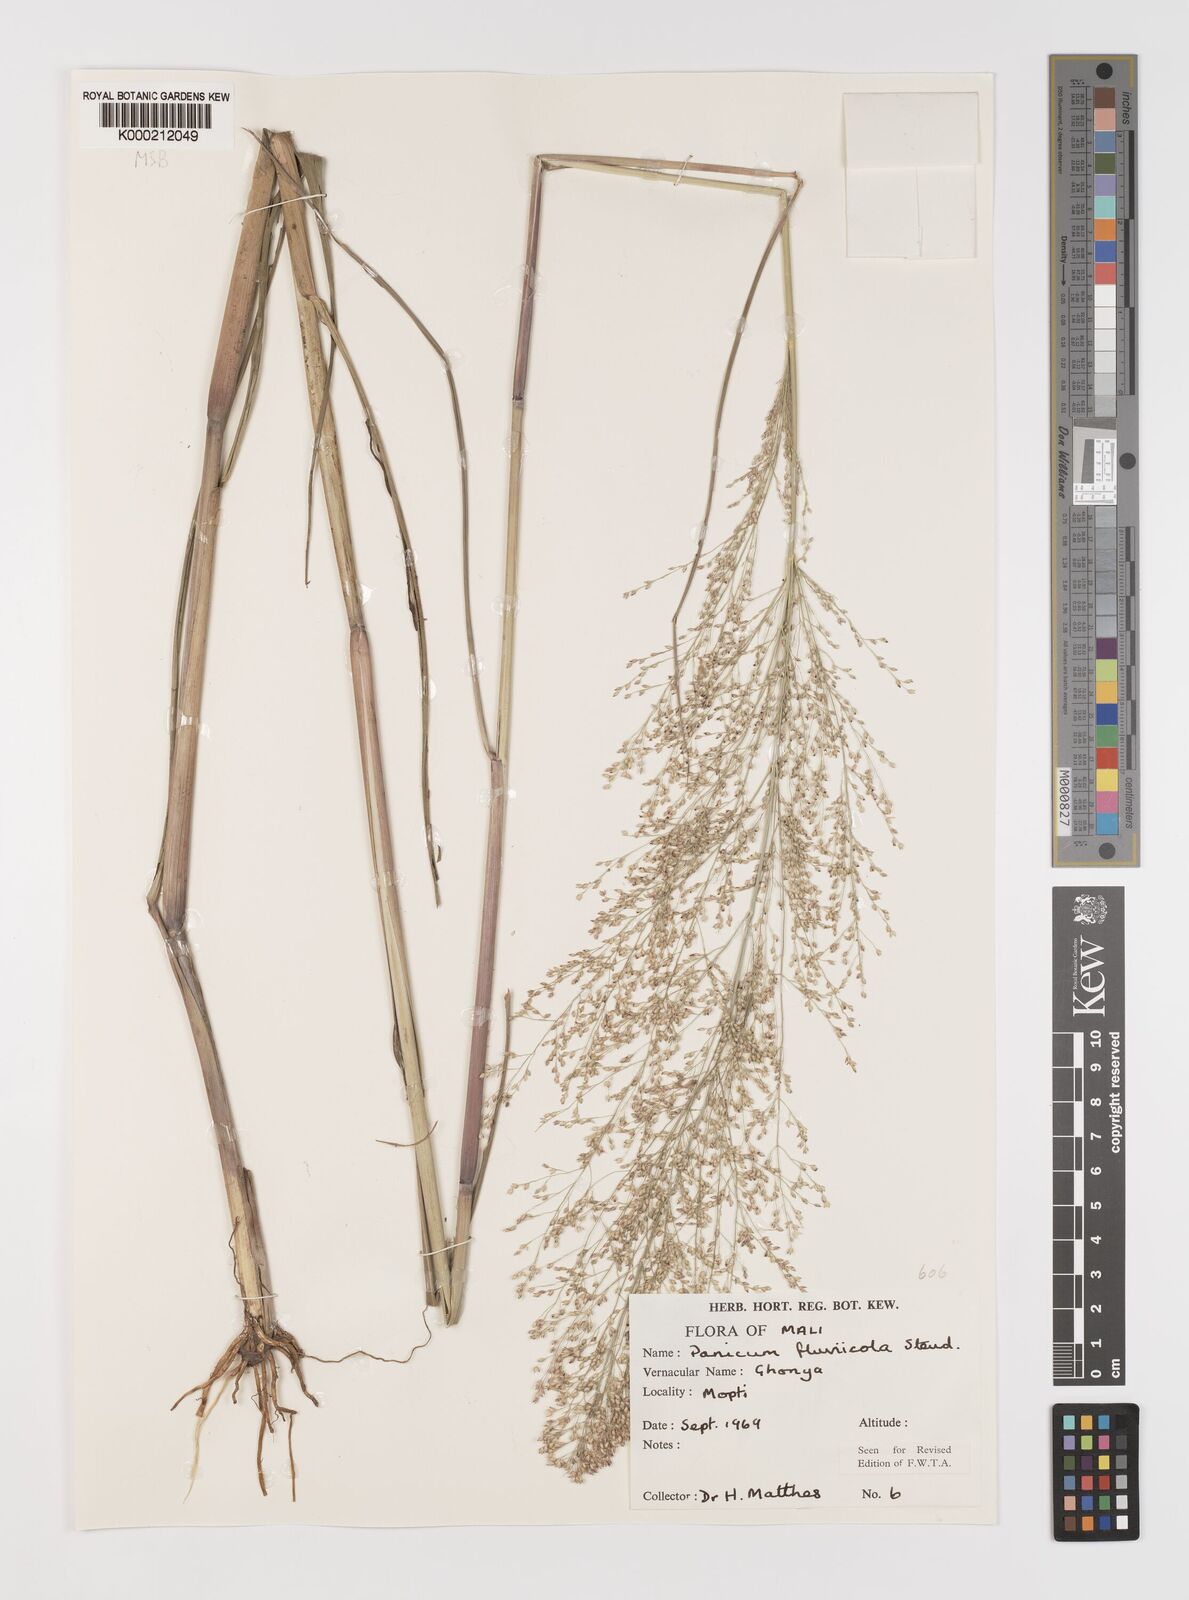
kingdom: Plantae
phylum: Tracheophyta
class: Liliopsida
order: Poales
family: Poaceae
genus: Panicum
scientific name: Panicum fluviicola
